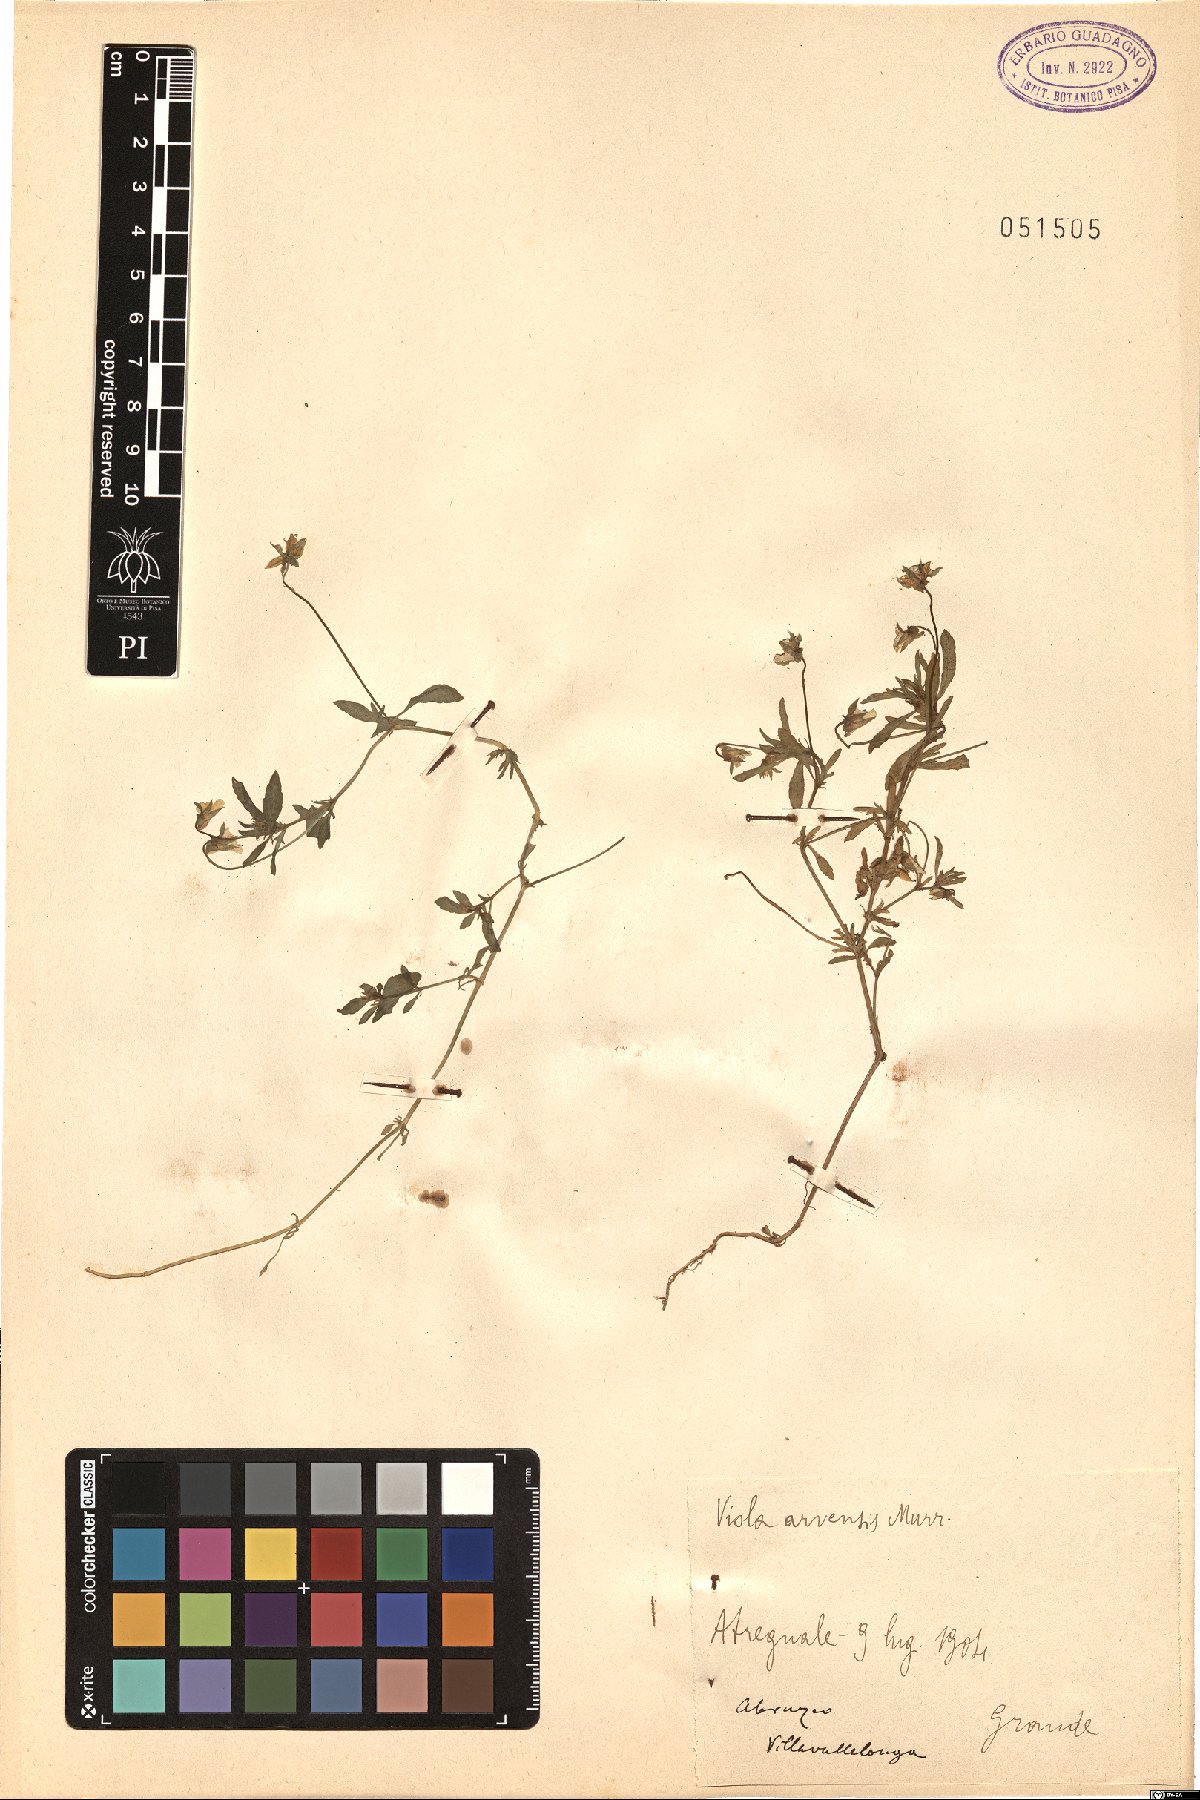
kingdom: Plantae
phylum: Tracheophyta
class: Magnoliopsida
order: Malpighiales
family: Violaceae
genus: Viola
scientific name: Viola arvensis
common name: Field pansy
